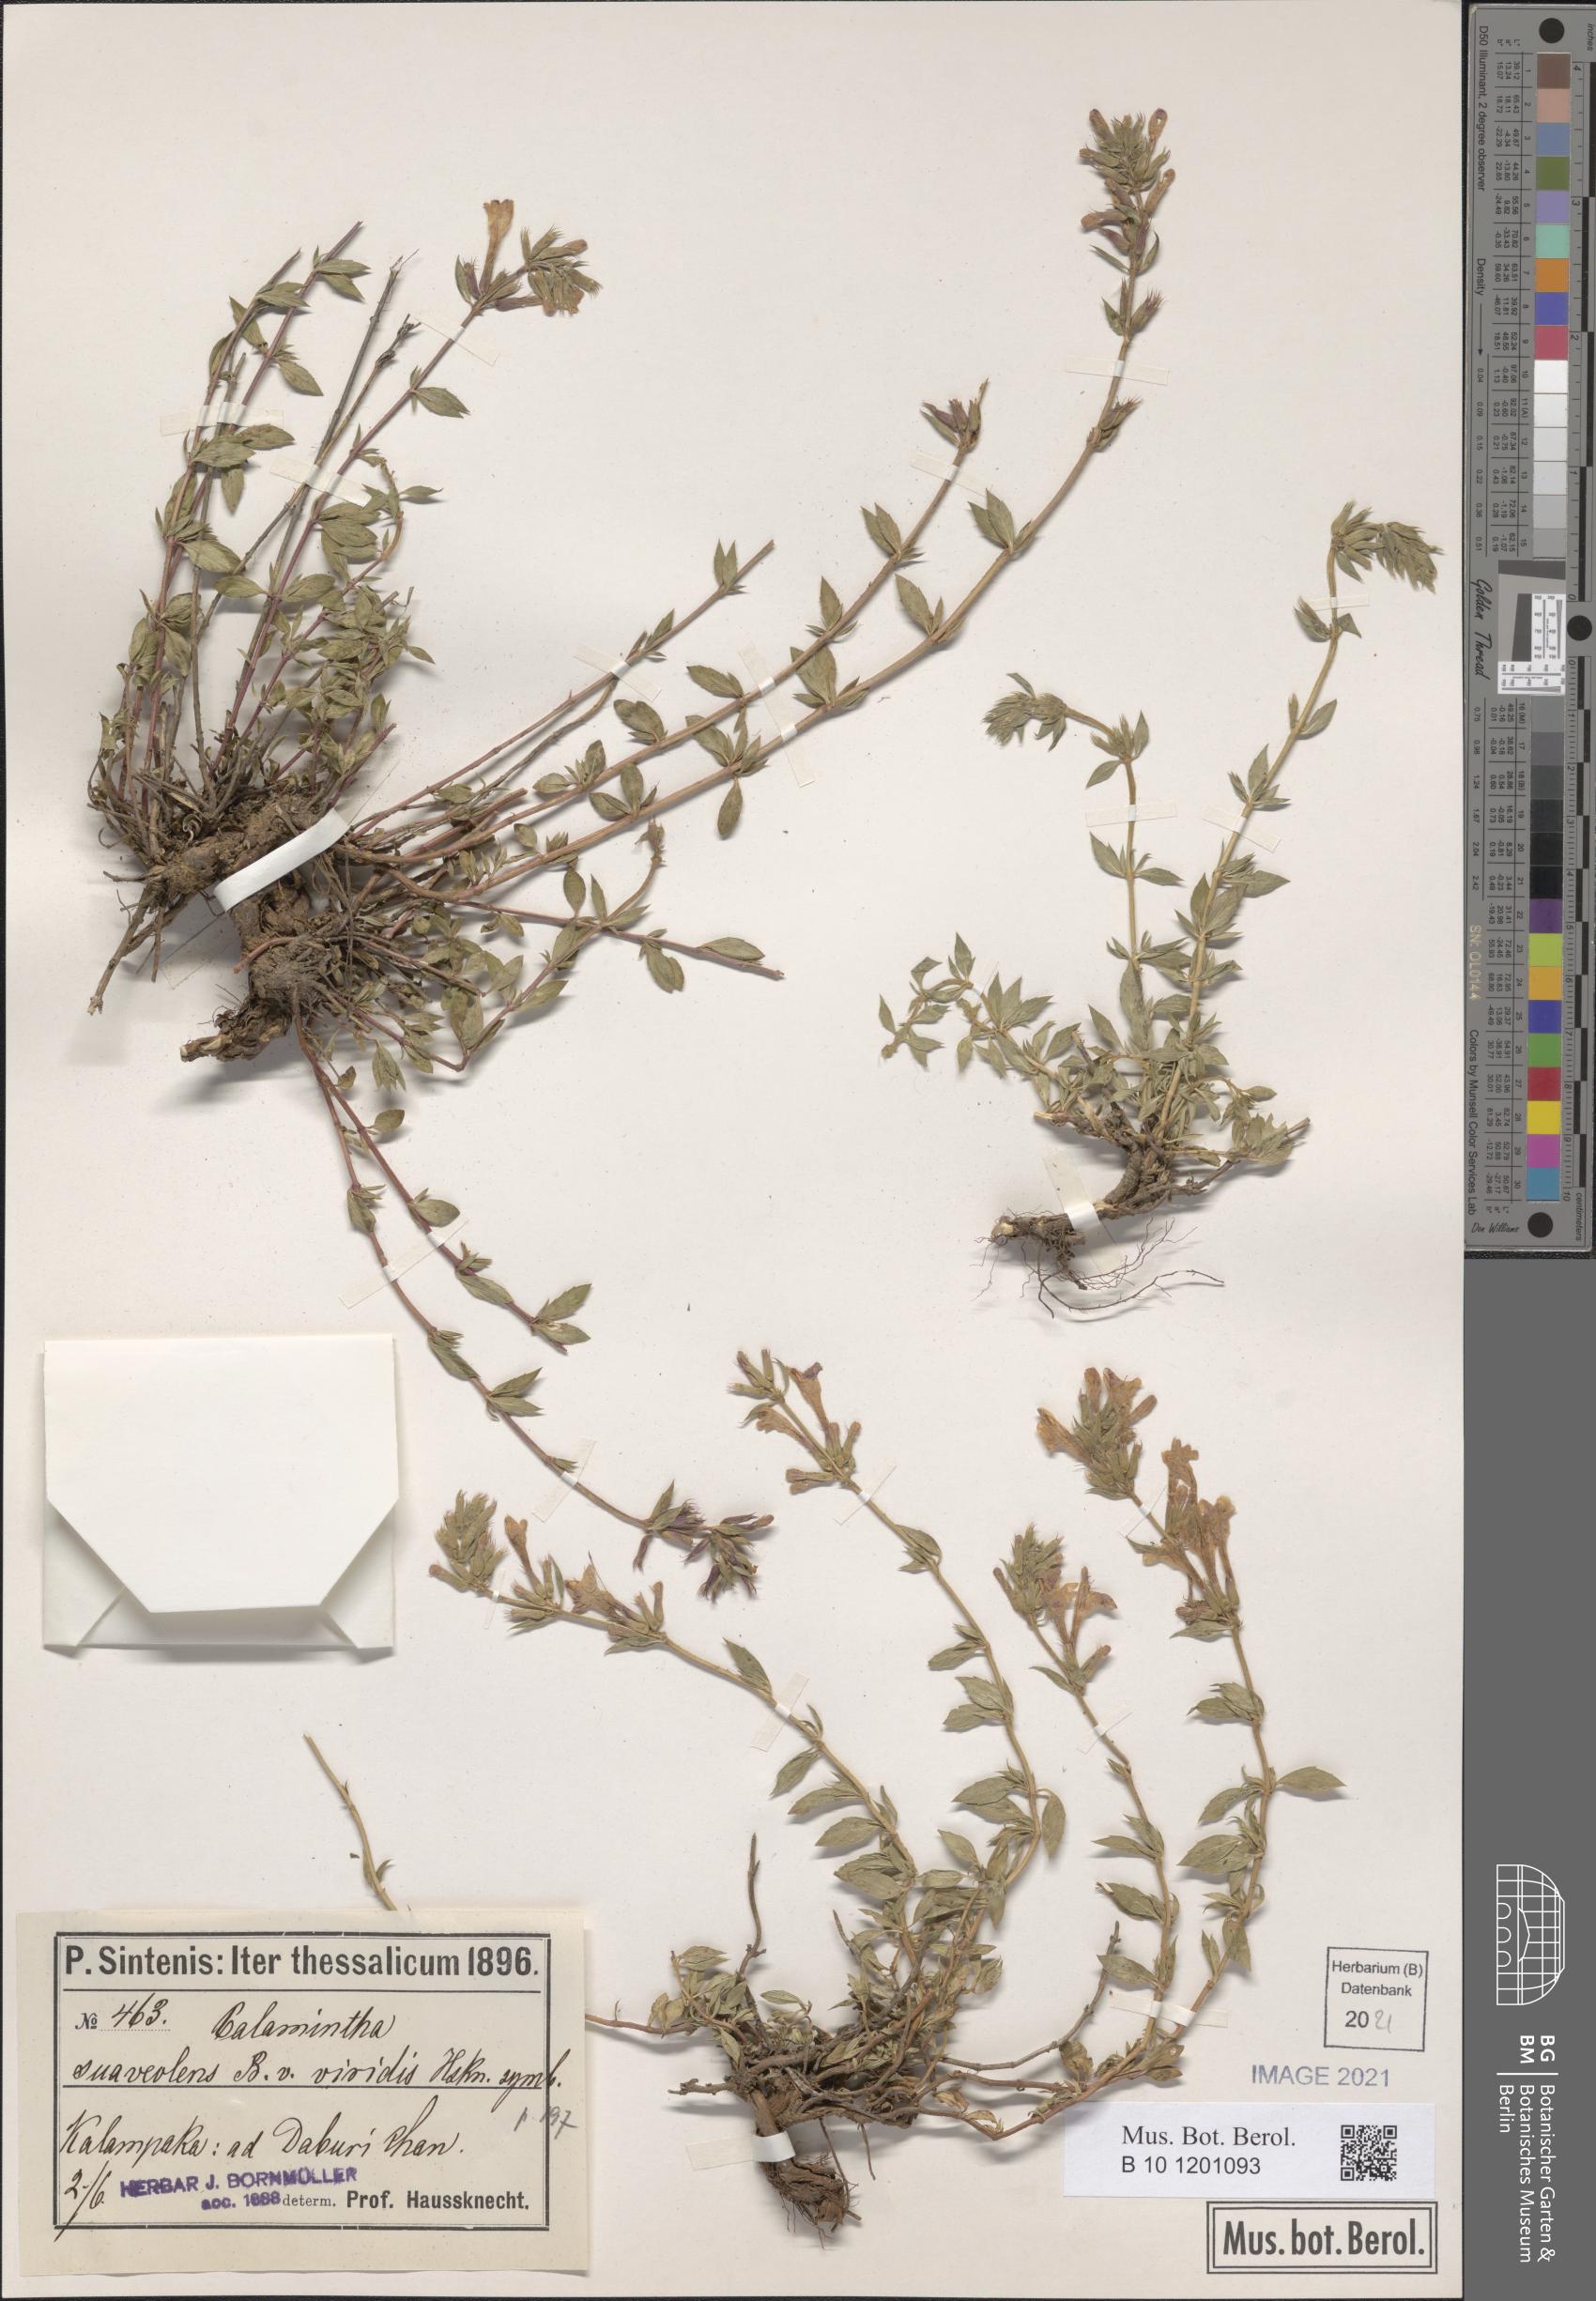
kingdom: Plantae
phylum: Tracheophyta
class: Magnoliopsida
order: Lamiales
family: Lamiaceae
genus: Clinopodium
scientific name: Clinopodium suaveolens
